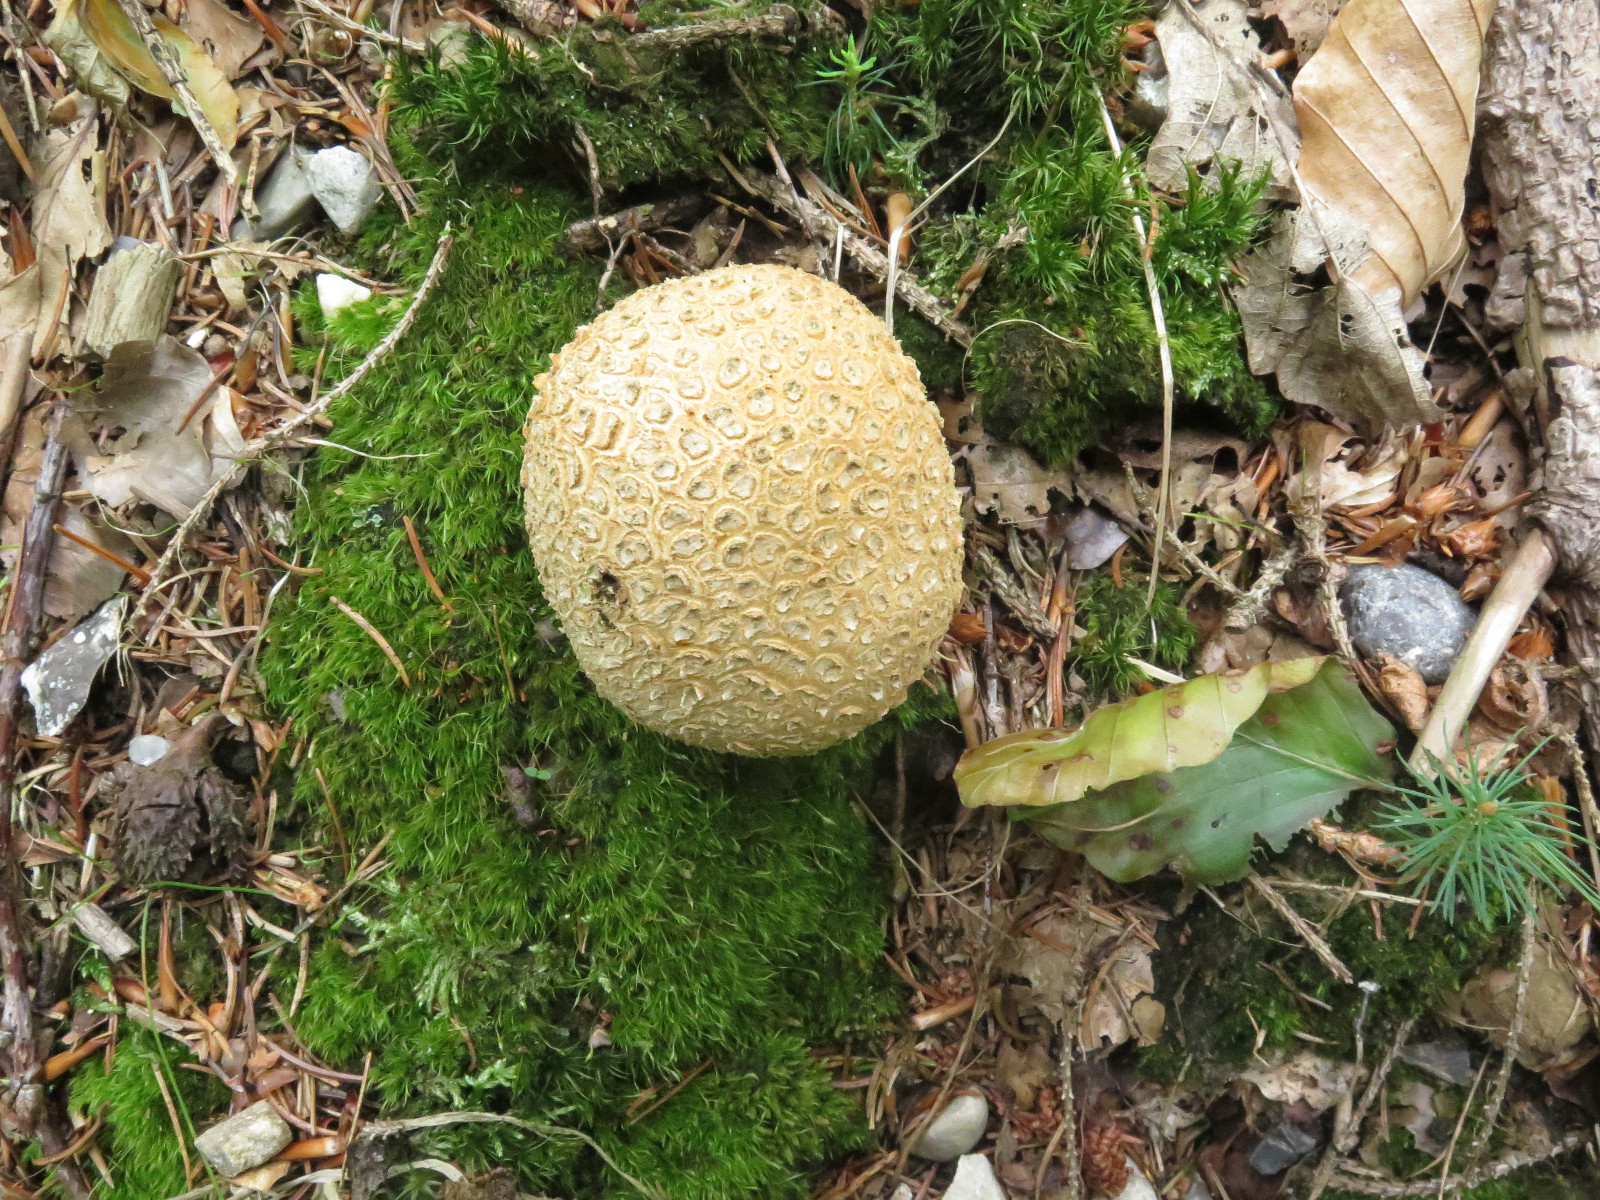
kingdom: Fungi
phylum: Basidiomycota
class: Agaricomycetes
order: Boletales
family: Sclerodermataceae
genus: Scleroderma
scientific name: Scleroderma citrinum
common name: almindelig bruskbold
